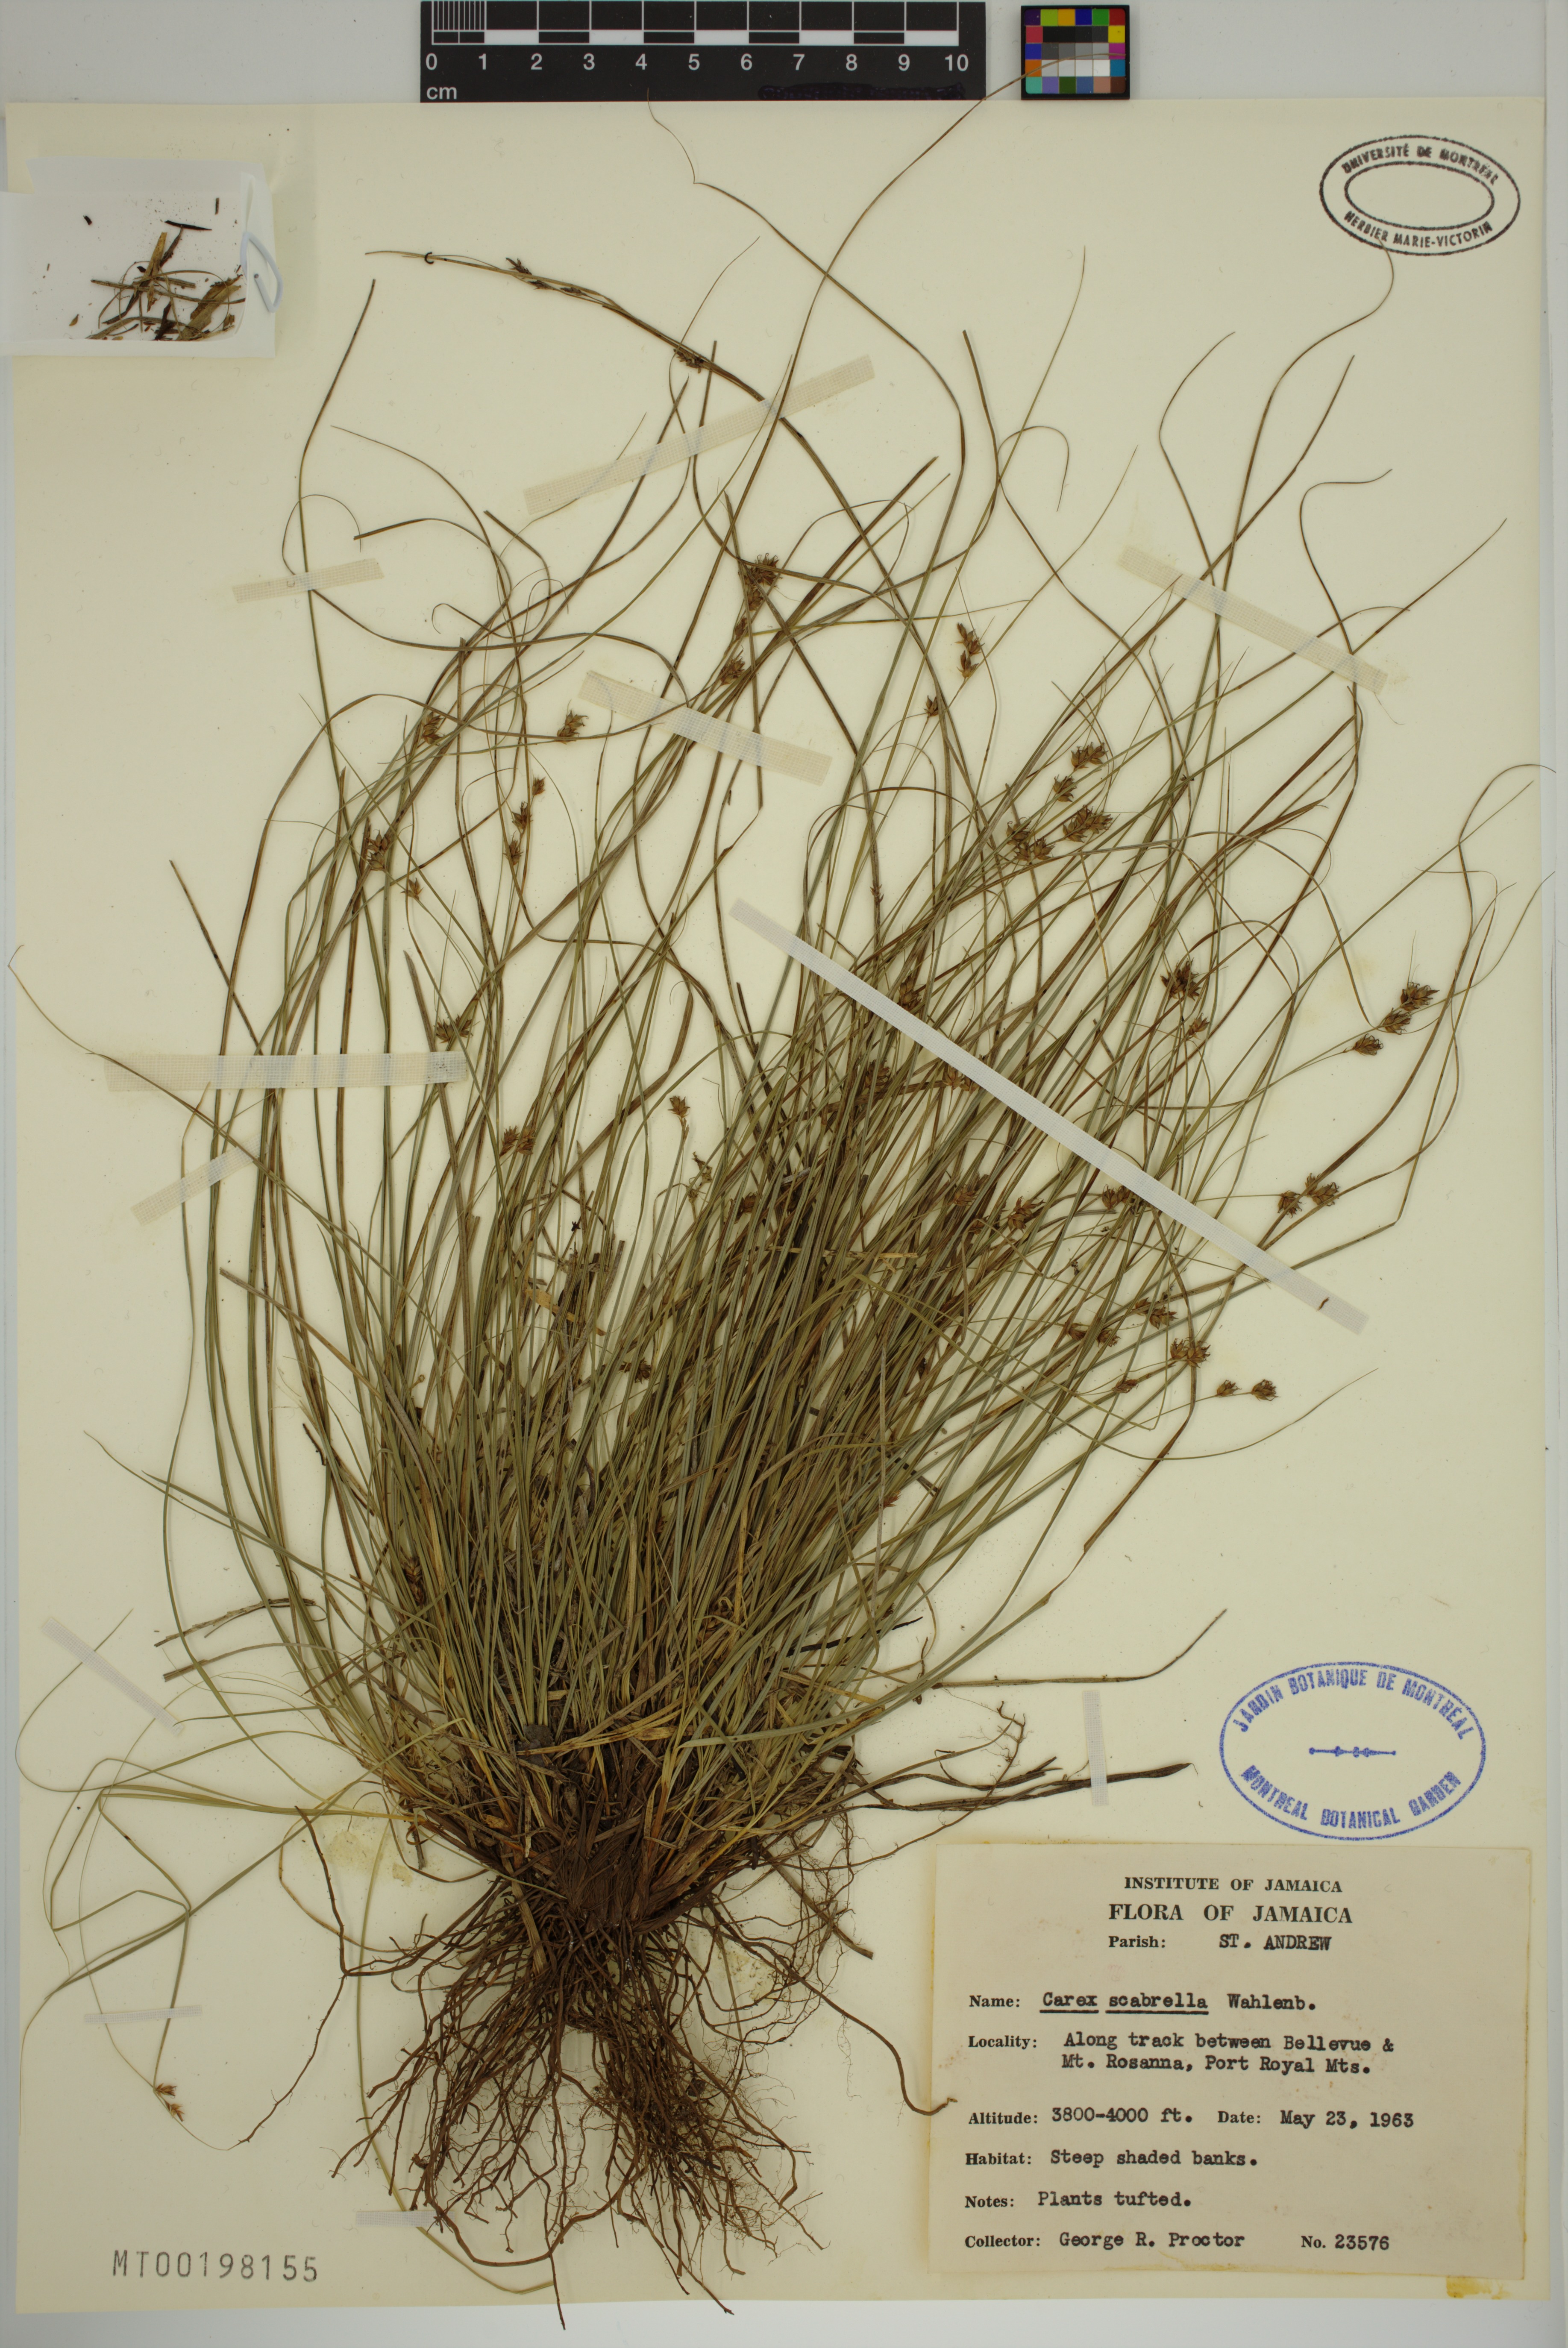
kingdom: Plantae
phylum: Tracheophyta
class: Liliopsida
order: Poales
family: Cyperaceae
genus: Carex
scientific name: Carex scabrella
